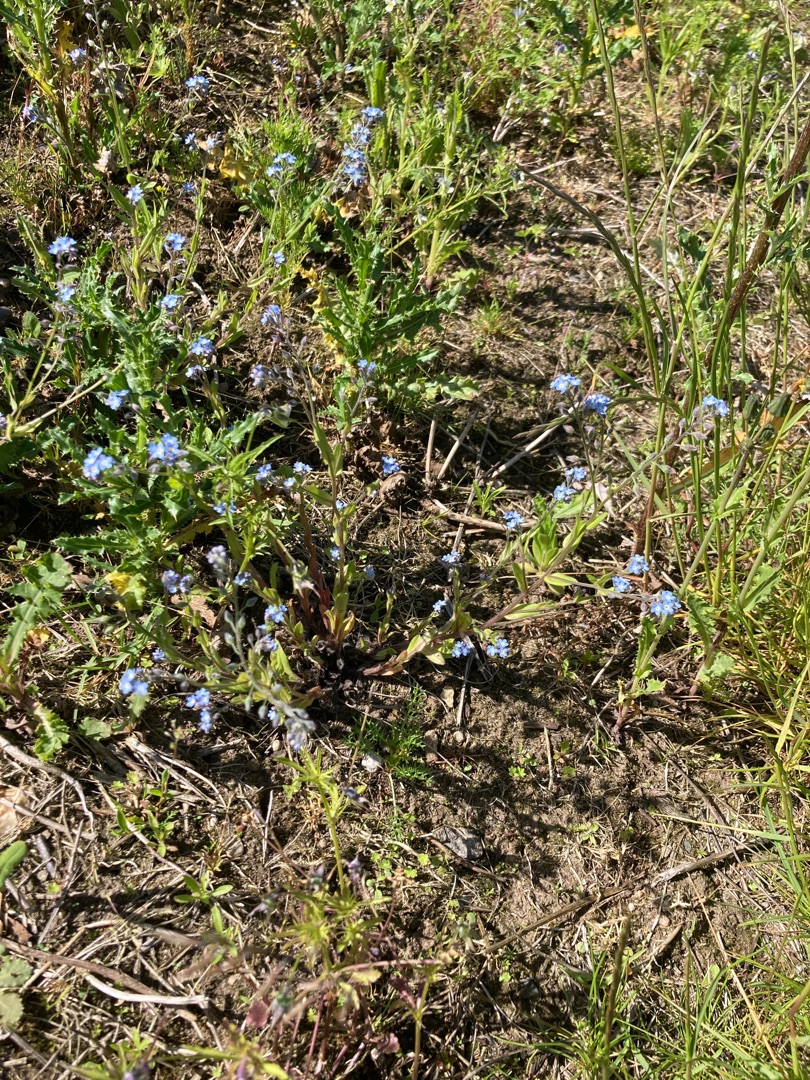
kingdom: Plantae
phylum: Tracheophyta
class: Magnoliopsida
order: Boraginales
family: Boraginaceae
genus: Myosotis
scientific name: Myosotis arvensis
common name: Mark-forglemmigej
